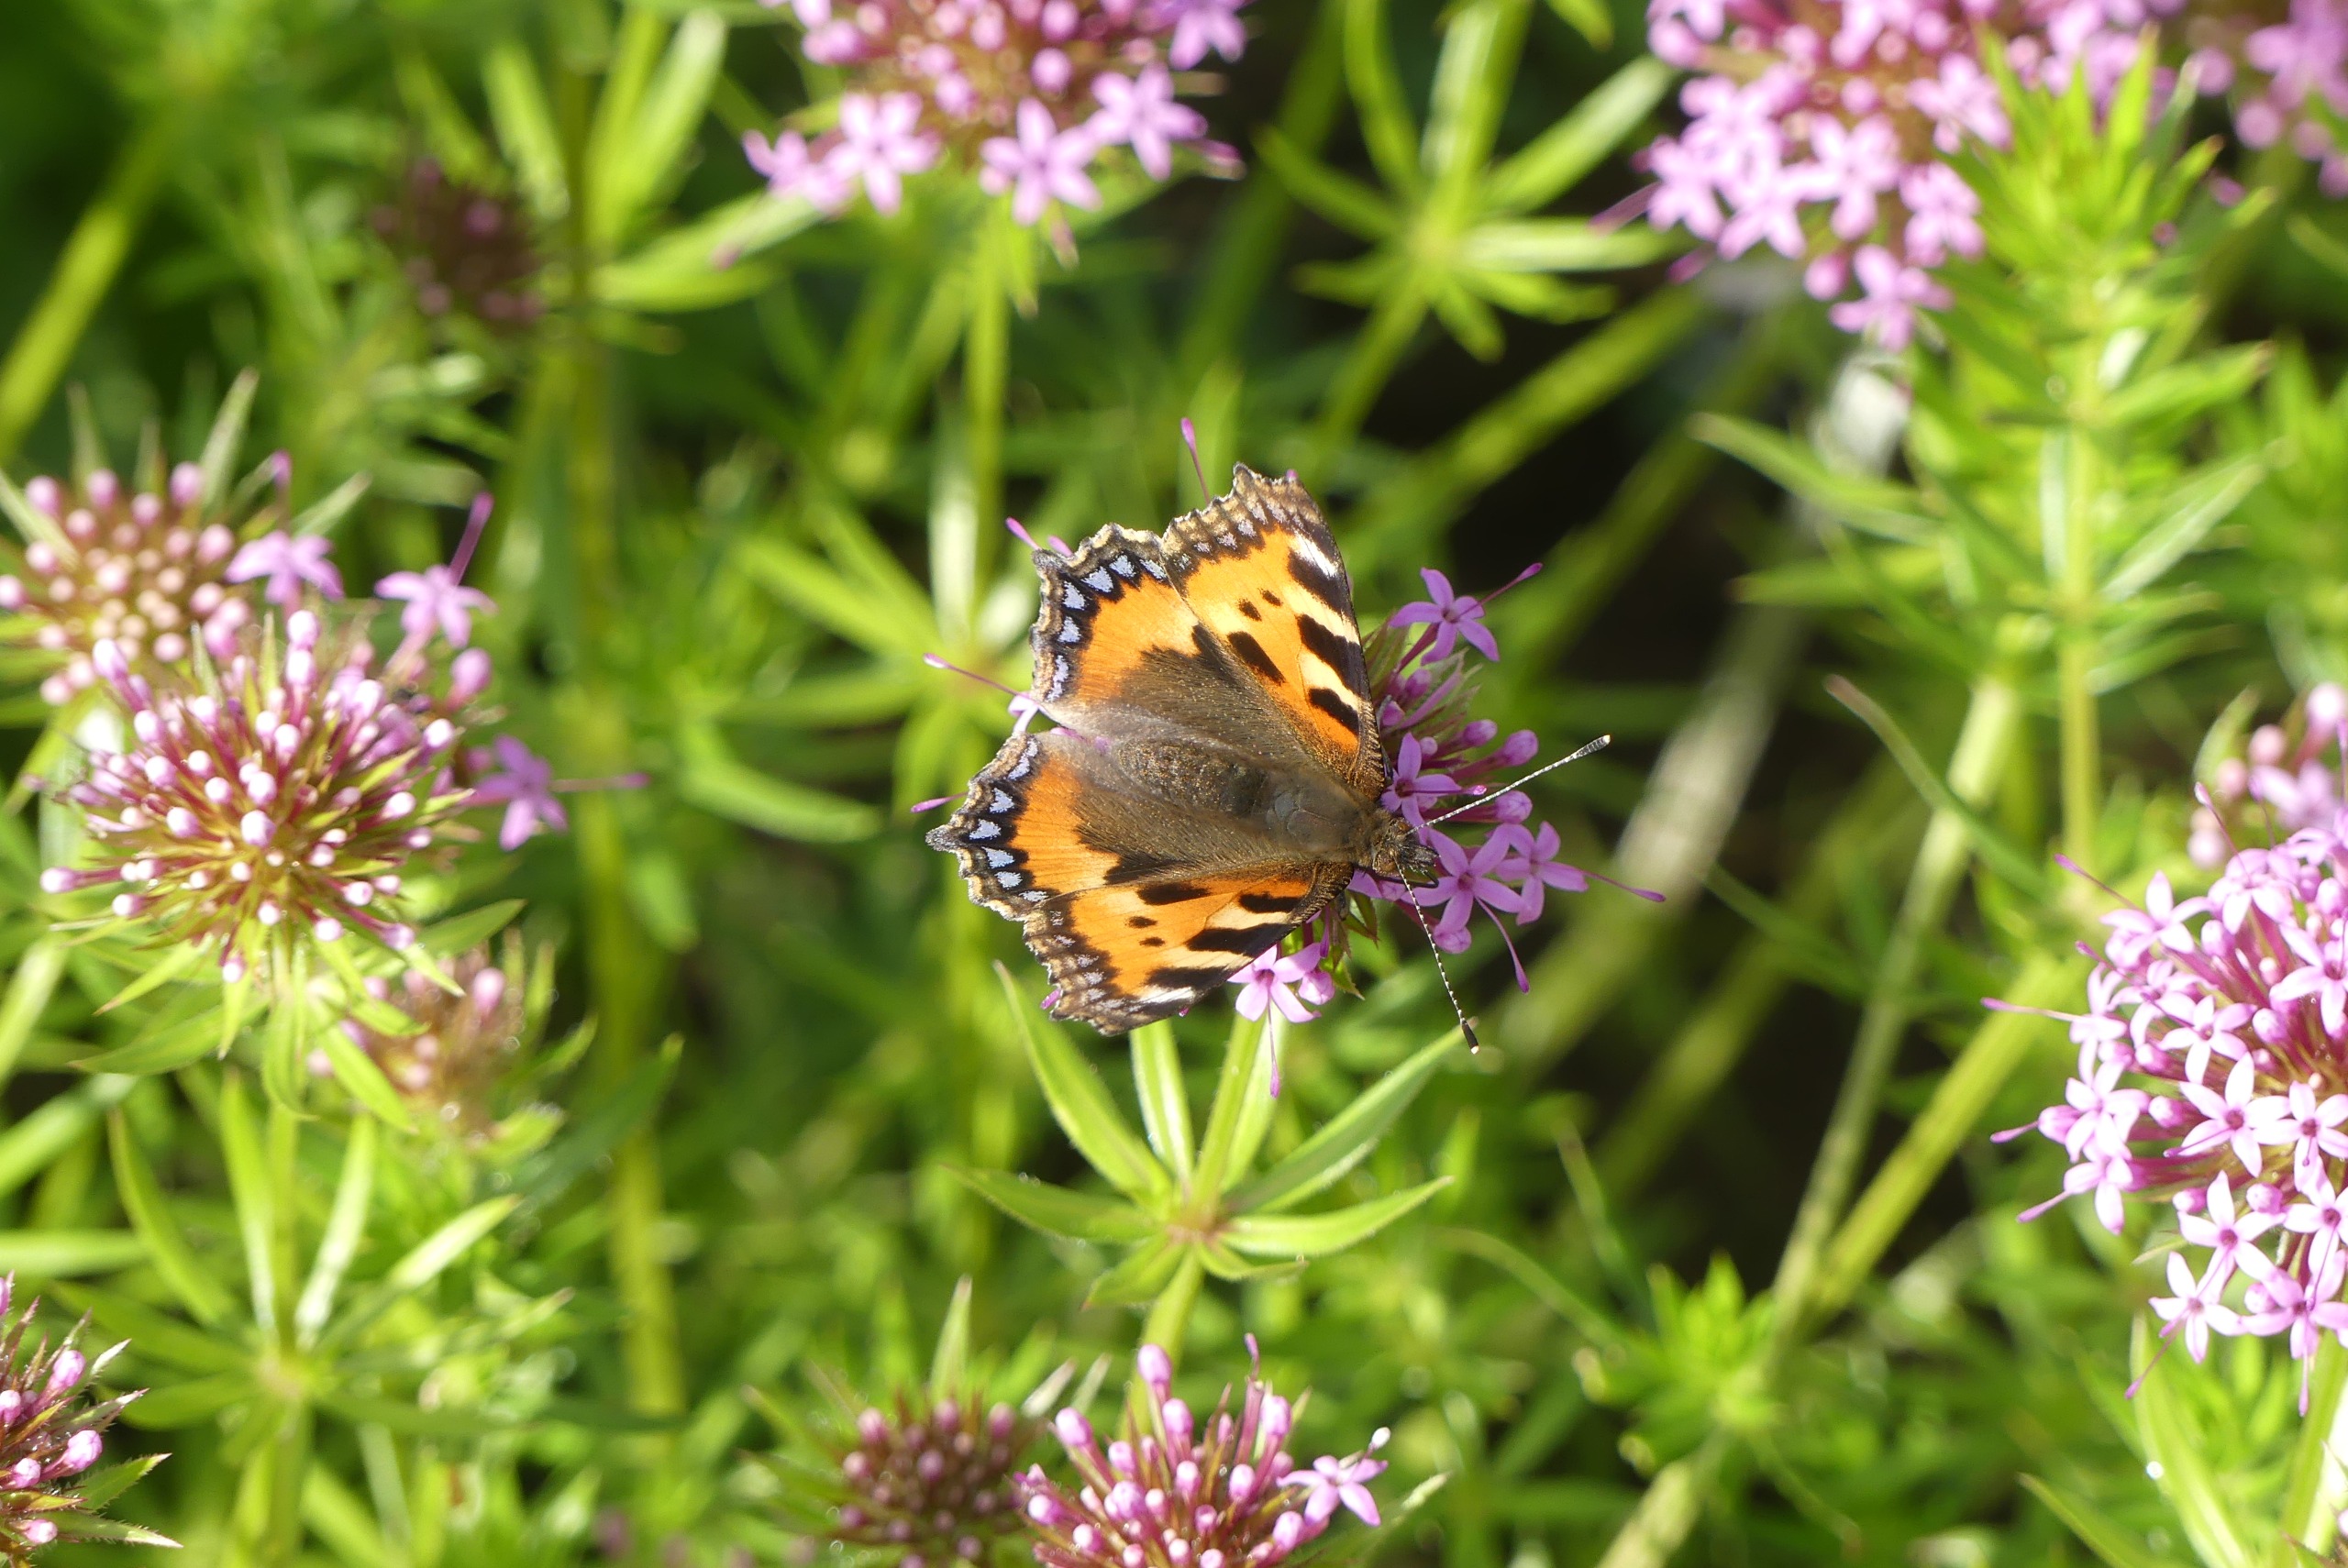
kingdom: Animalia
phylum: Arthropoda
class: Insecta
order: Lepidoptera
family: Nymphalidae
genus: Aglais
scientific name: Aglais urticae
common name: Nældens takvinge
